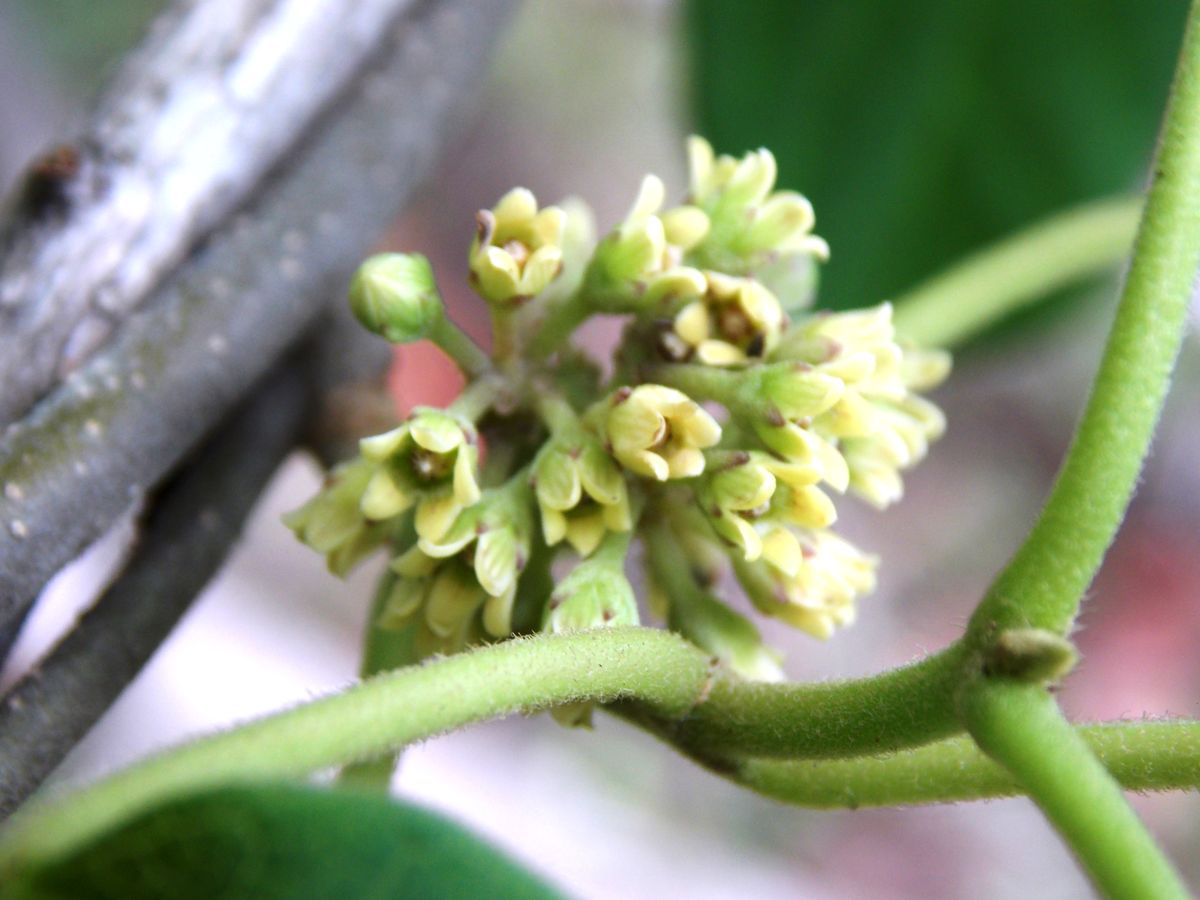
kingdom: Plantae
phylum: Tracheophyta
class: Magnoliopsida
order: Gentianales
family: Apocynaceae
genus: Ruehssia
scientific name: Ruehssia gualanensis
